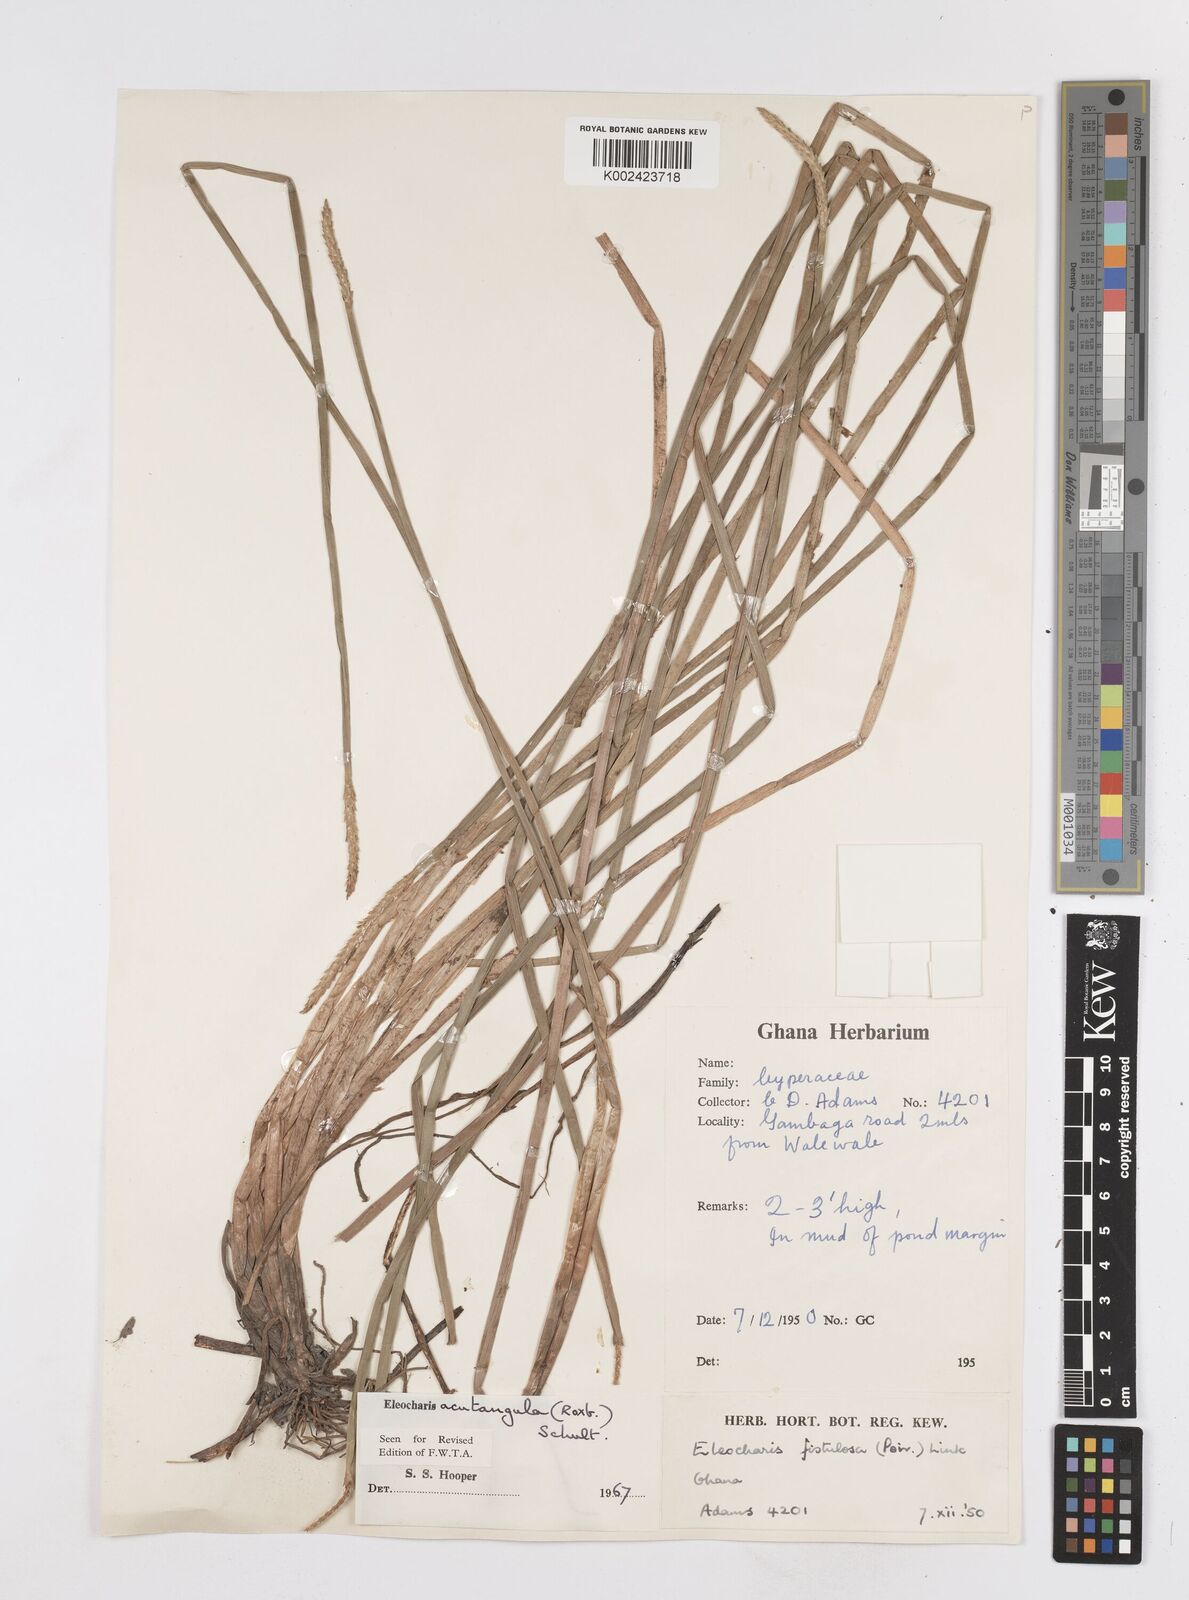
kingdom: Plantae
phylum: Tracheophyta
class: Liliopsida
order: Poales
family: Cyperaceae
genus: Eleocharis
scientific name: Eleocharis acutangula
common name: Acute spikerush
